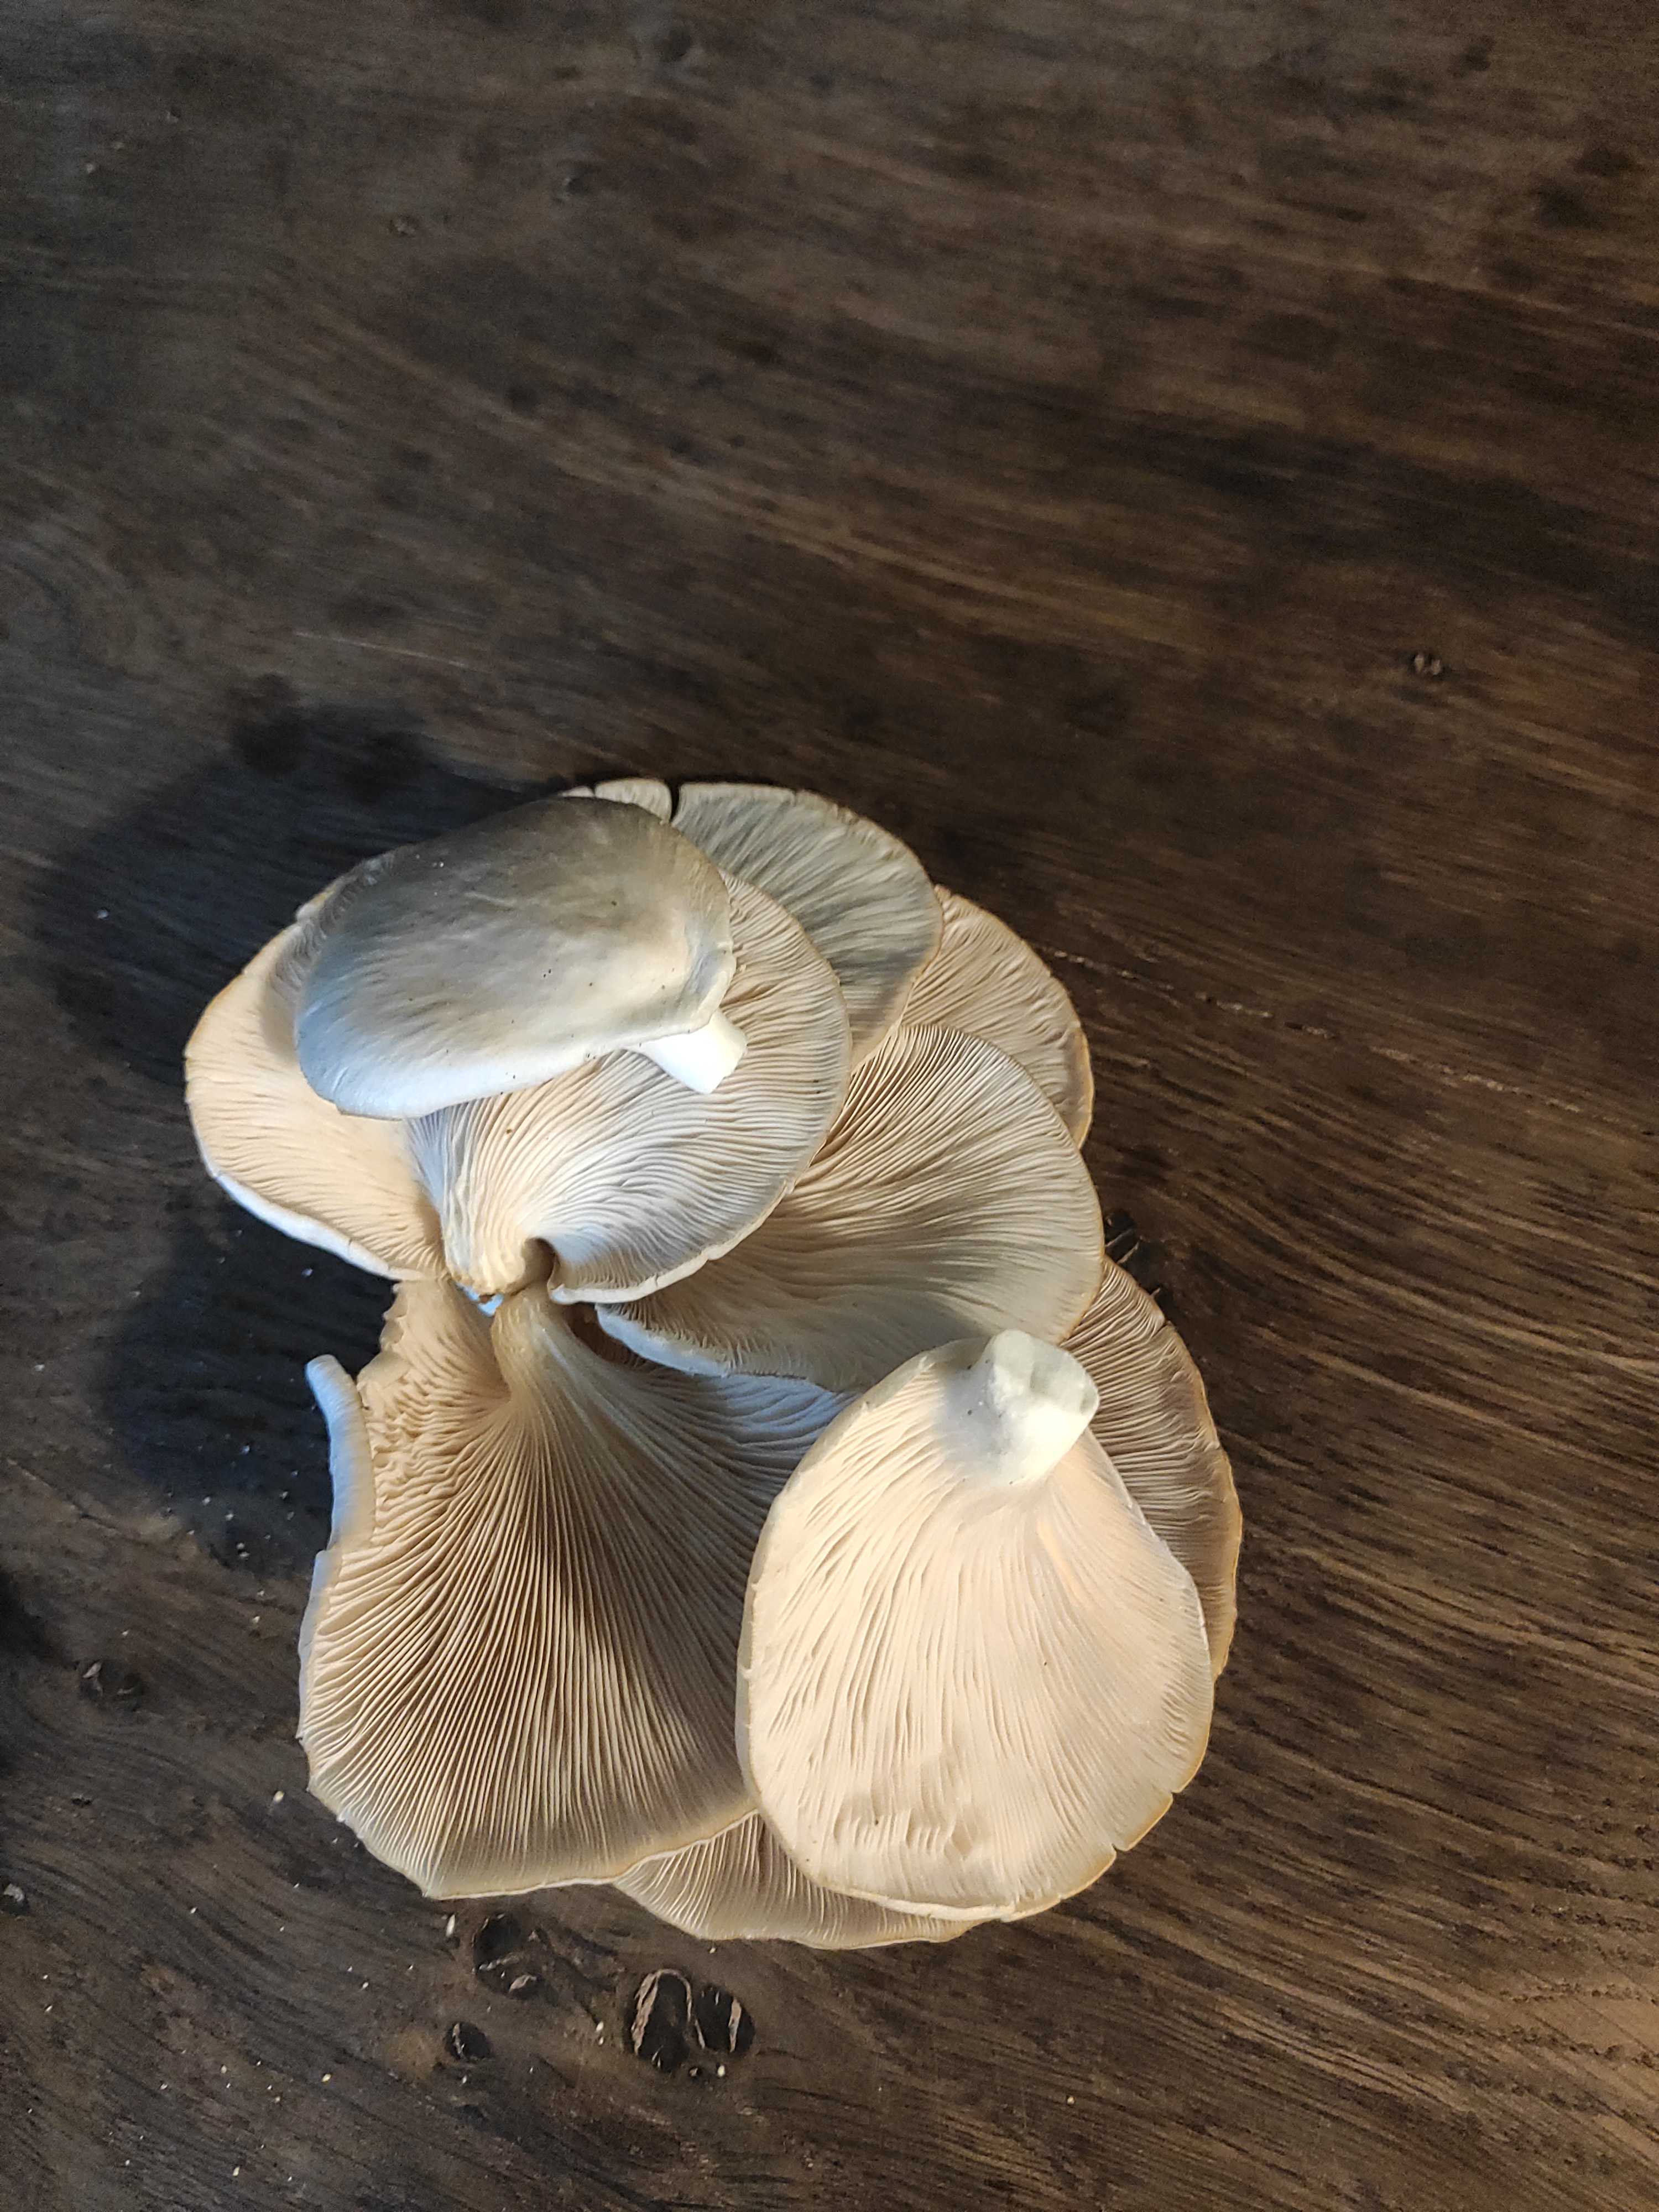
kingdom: Fungi
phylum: Basidiomycota
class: Agaricomycetes
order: Agaricales
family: Pleurotaceae
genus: Pleurotus
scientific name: Pleurotus pulmonarius
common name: sommer-østershat
